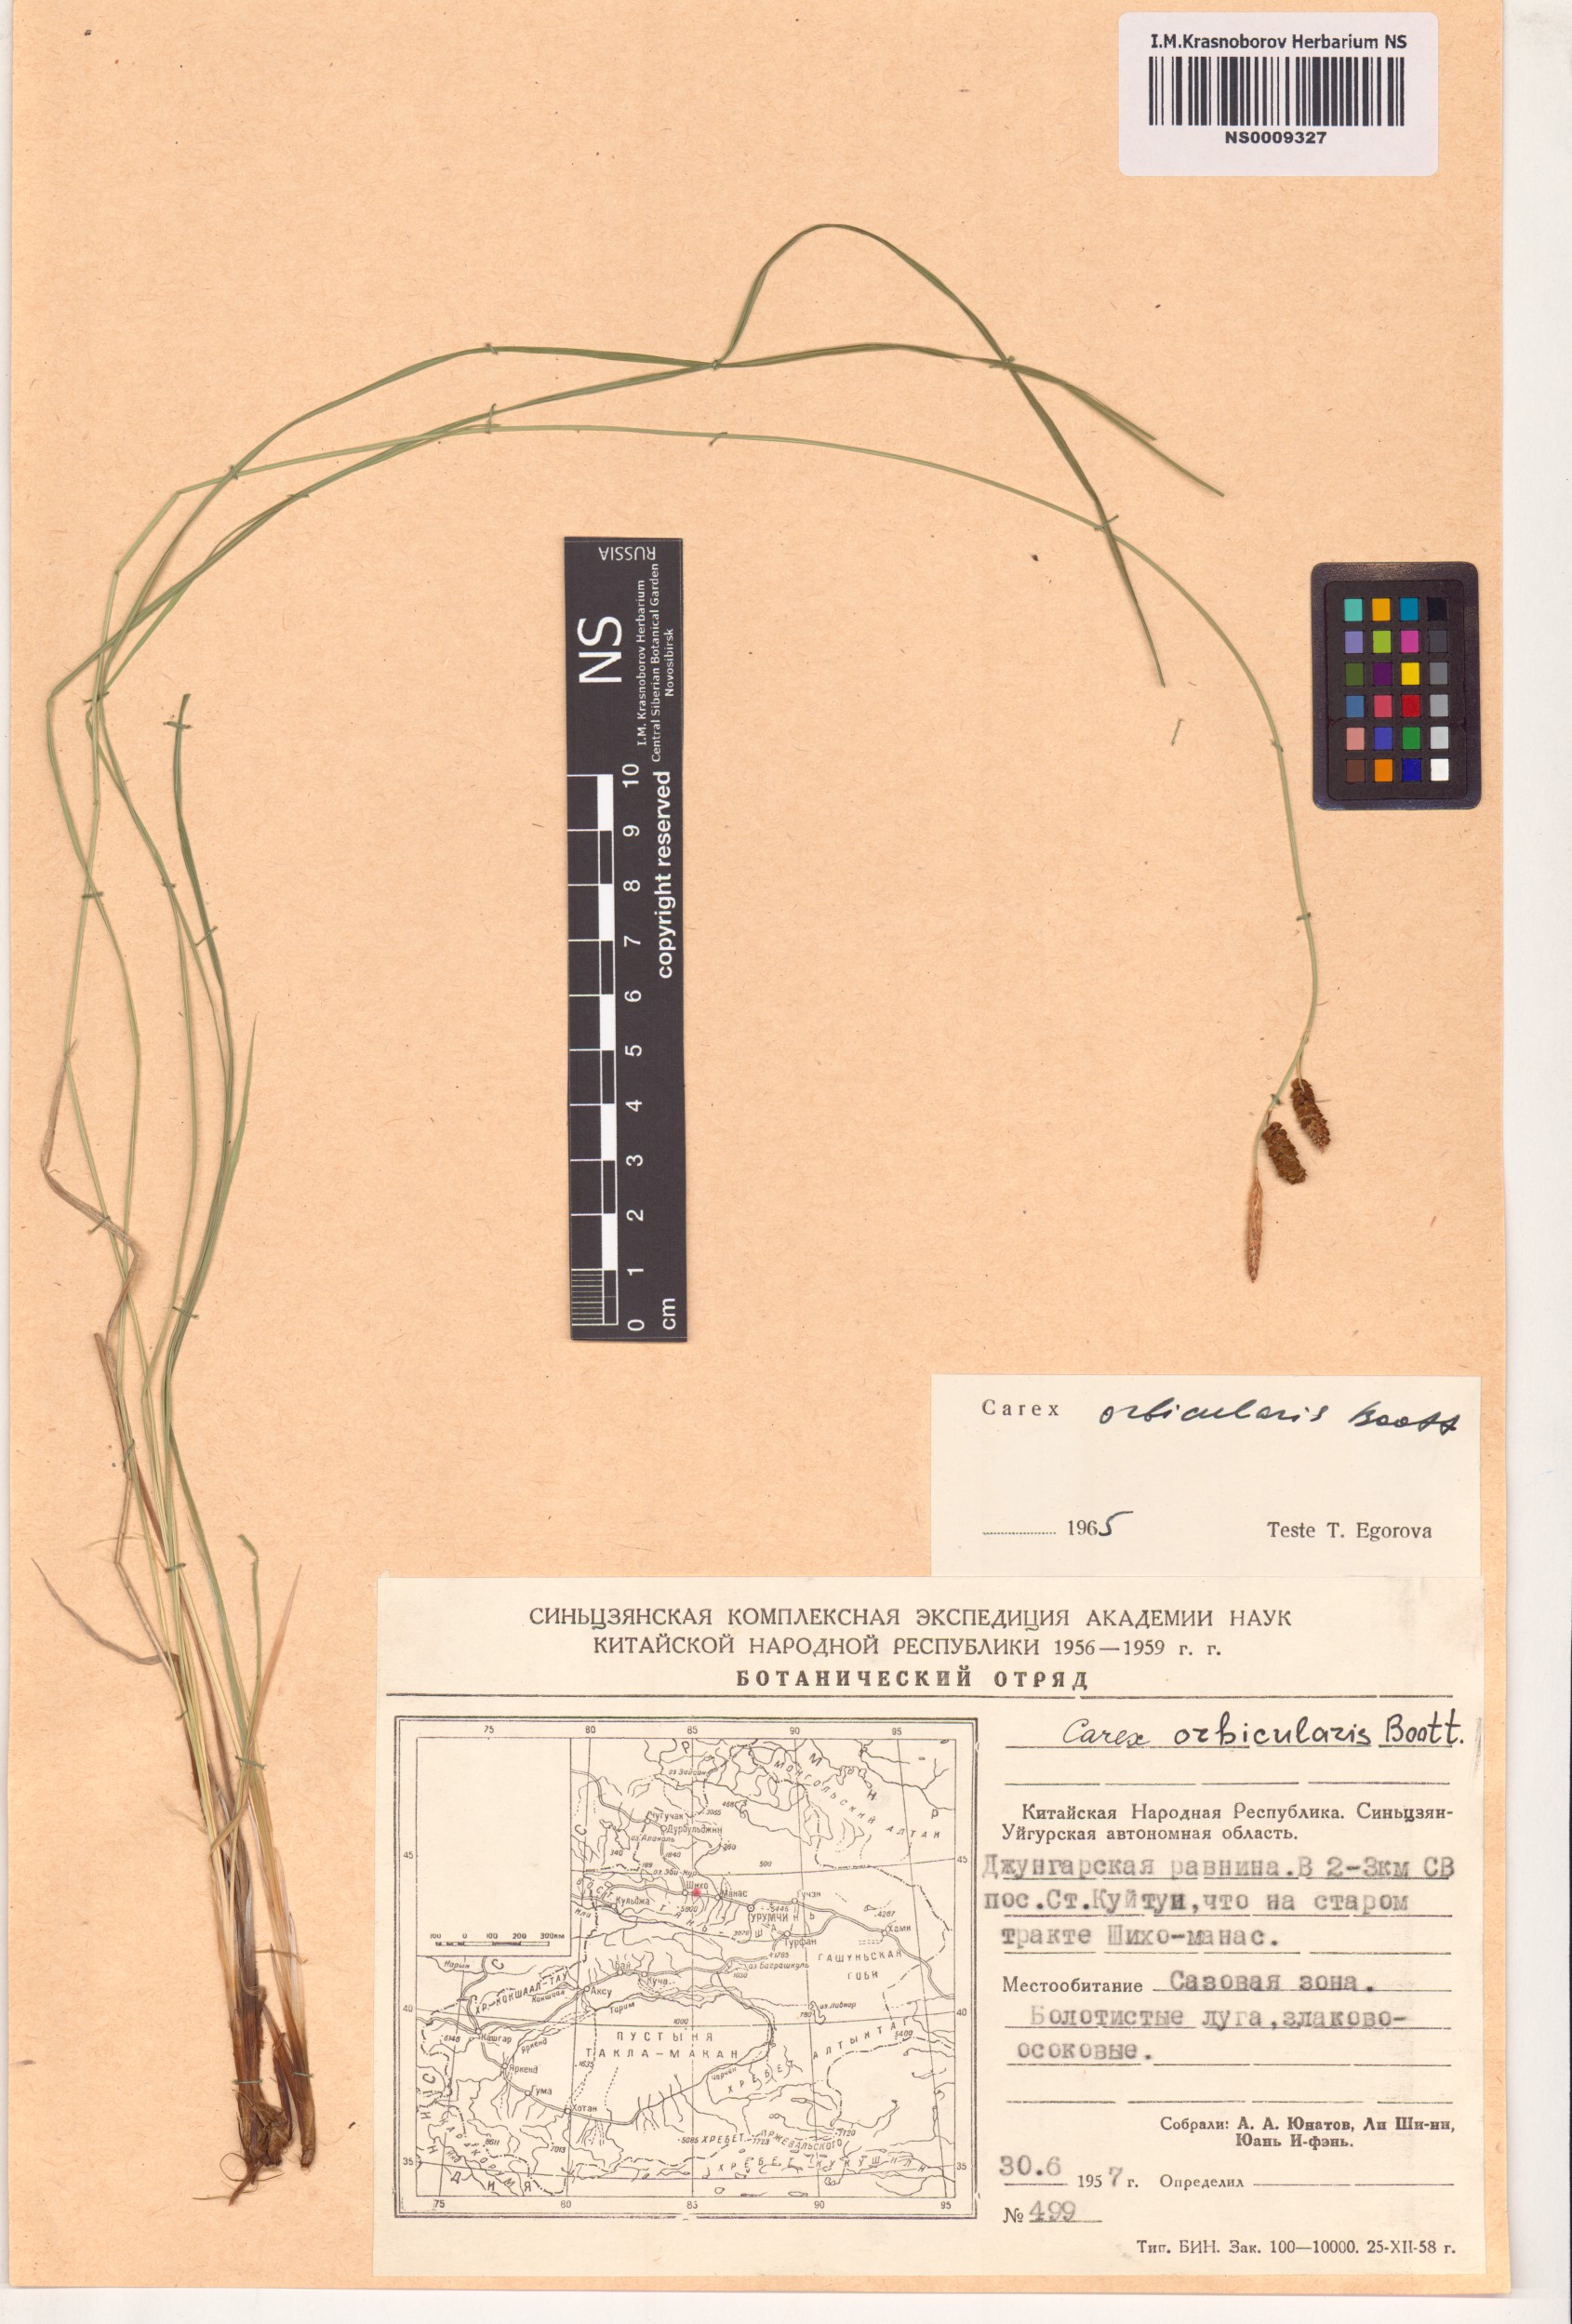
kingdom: Plantae
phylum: Tracheophyta
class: Liliopsida
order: Poales
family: Cyperaceae
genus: Carex
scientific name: Carex orbicularis
